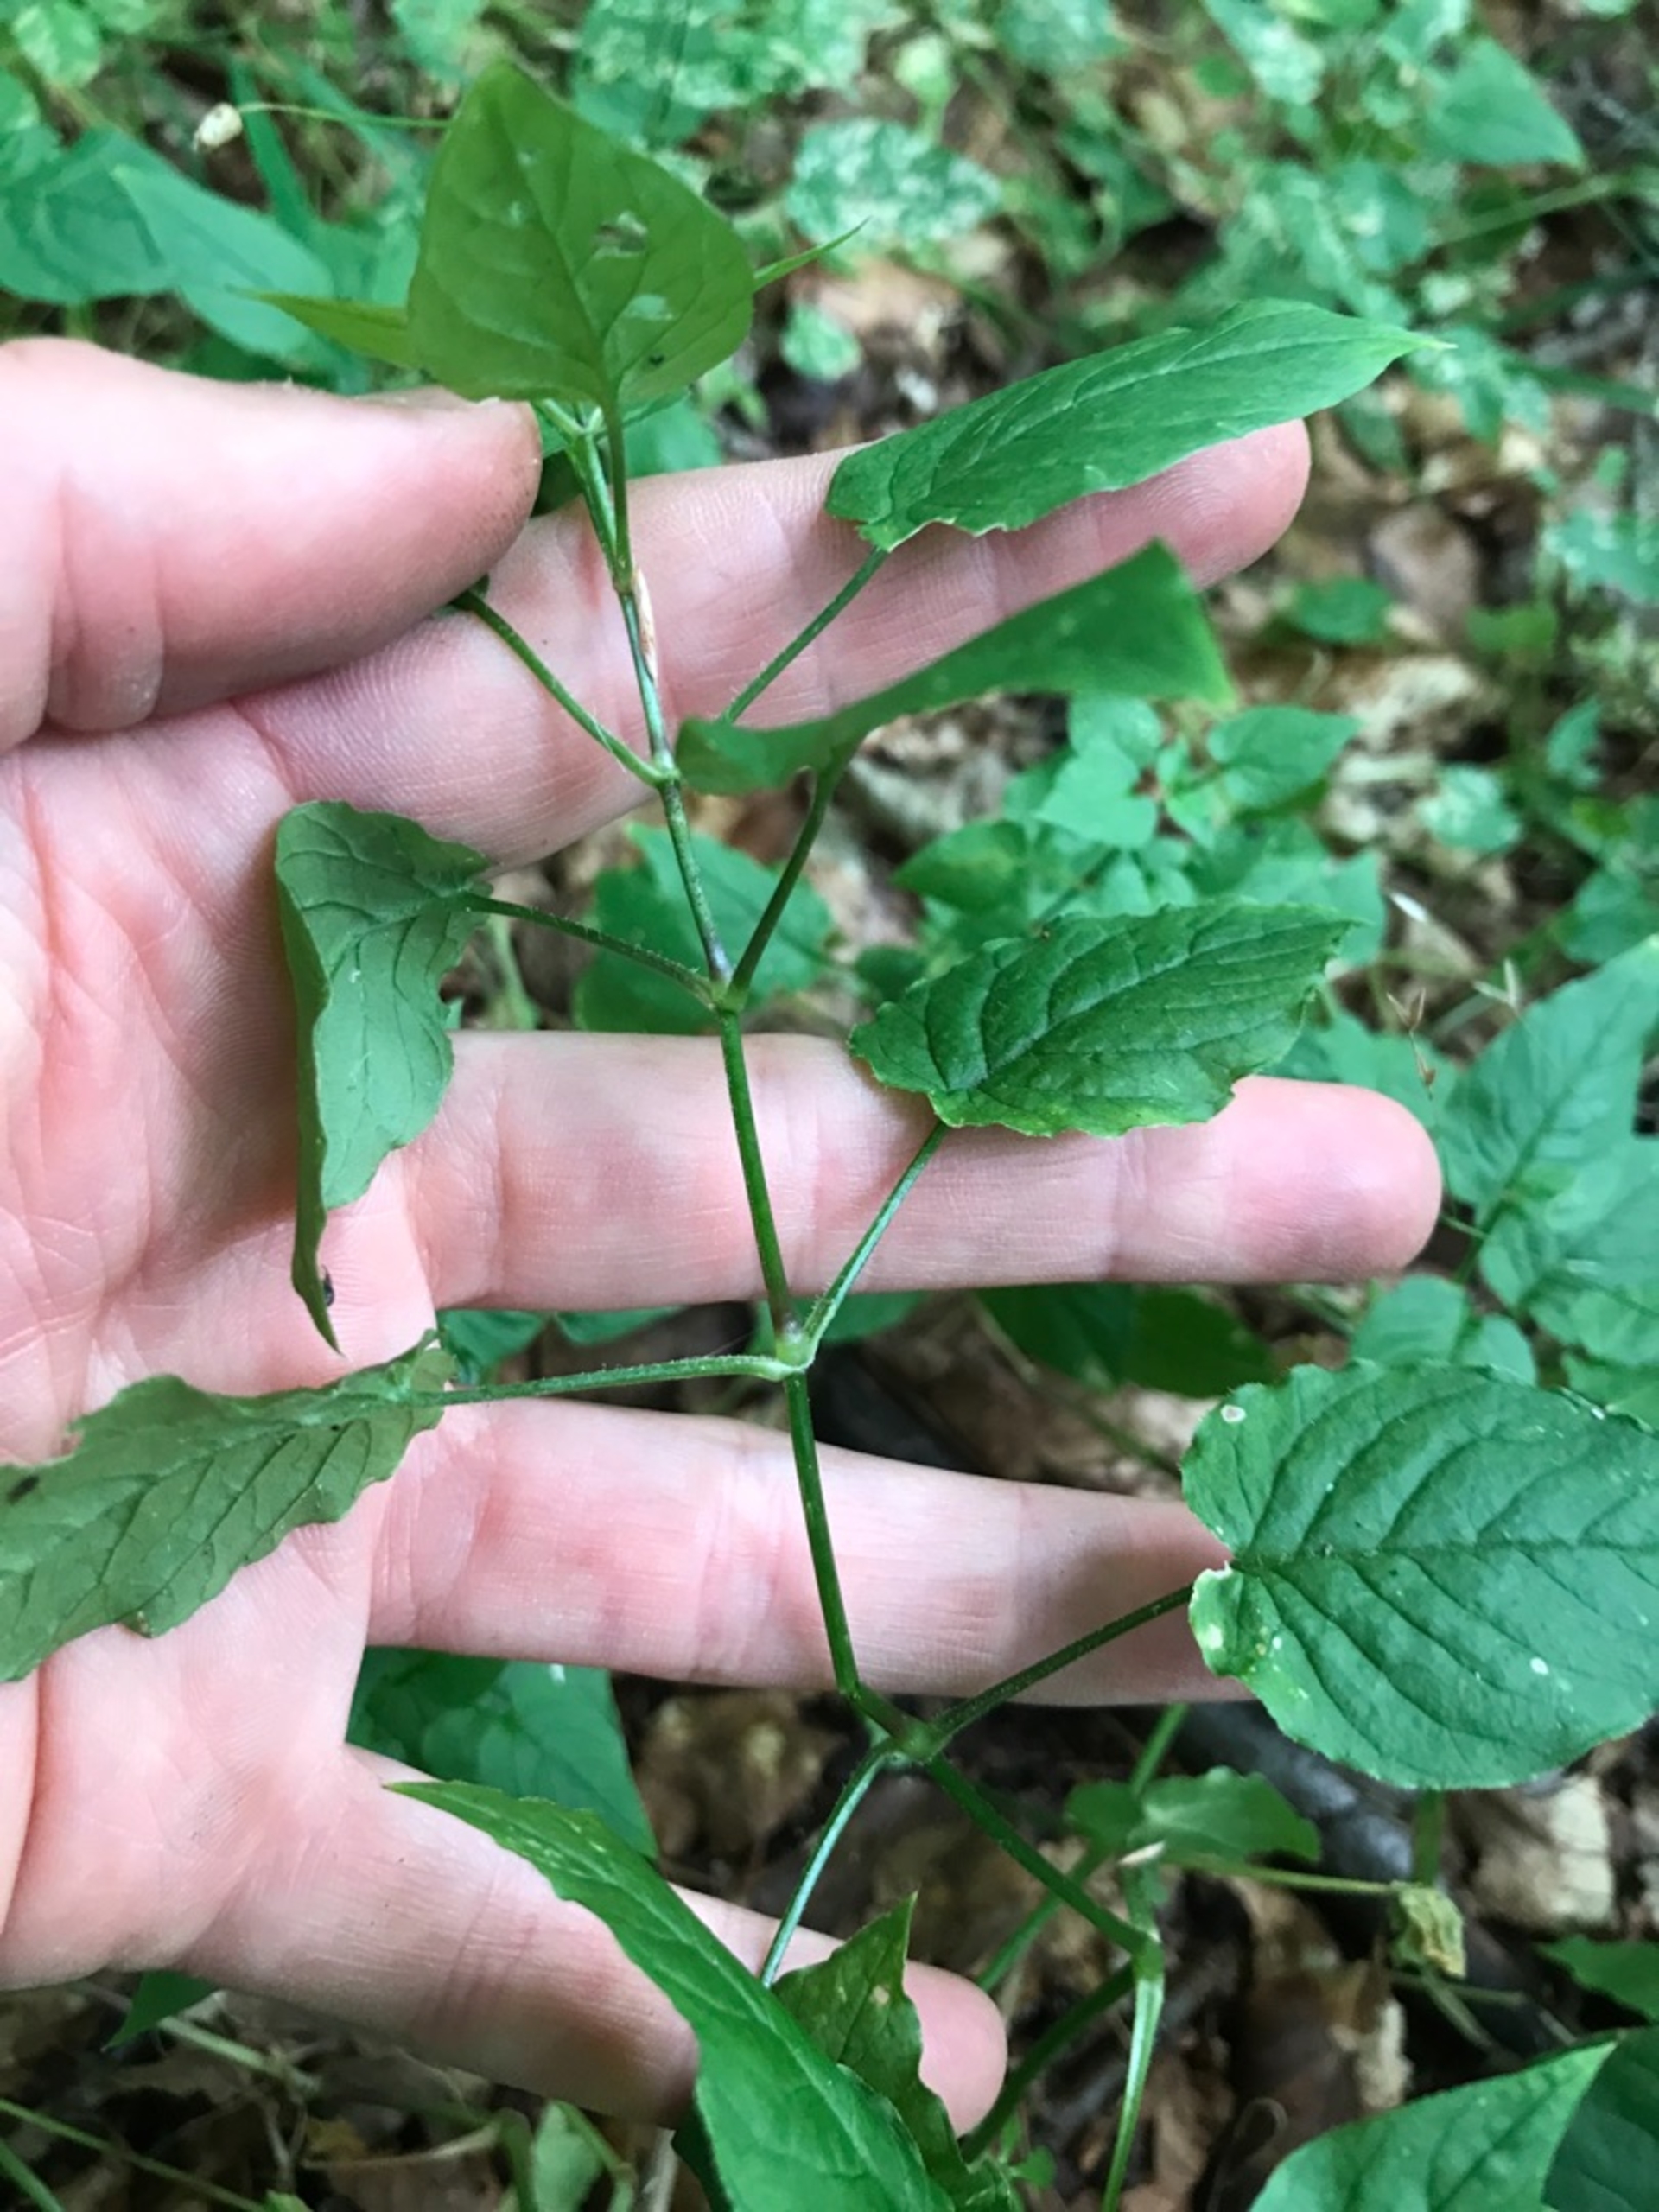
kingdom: Plantae
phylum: Tracheophyta
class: Magnoliopsida
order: Caryophyllales
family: Caryophyllaceae
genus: Stellaria
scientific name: Stellaria nemorum
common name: Lund-fladstjerne
